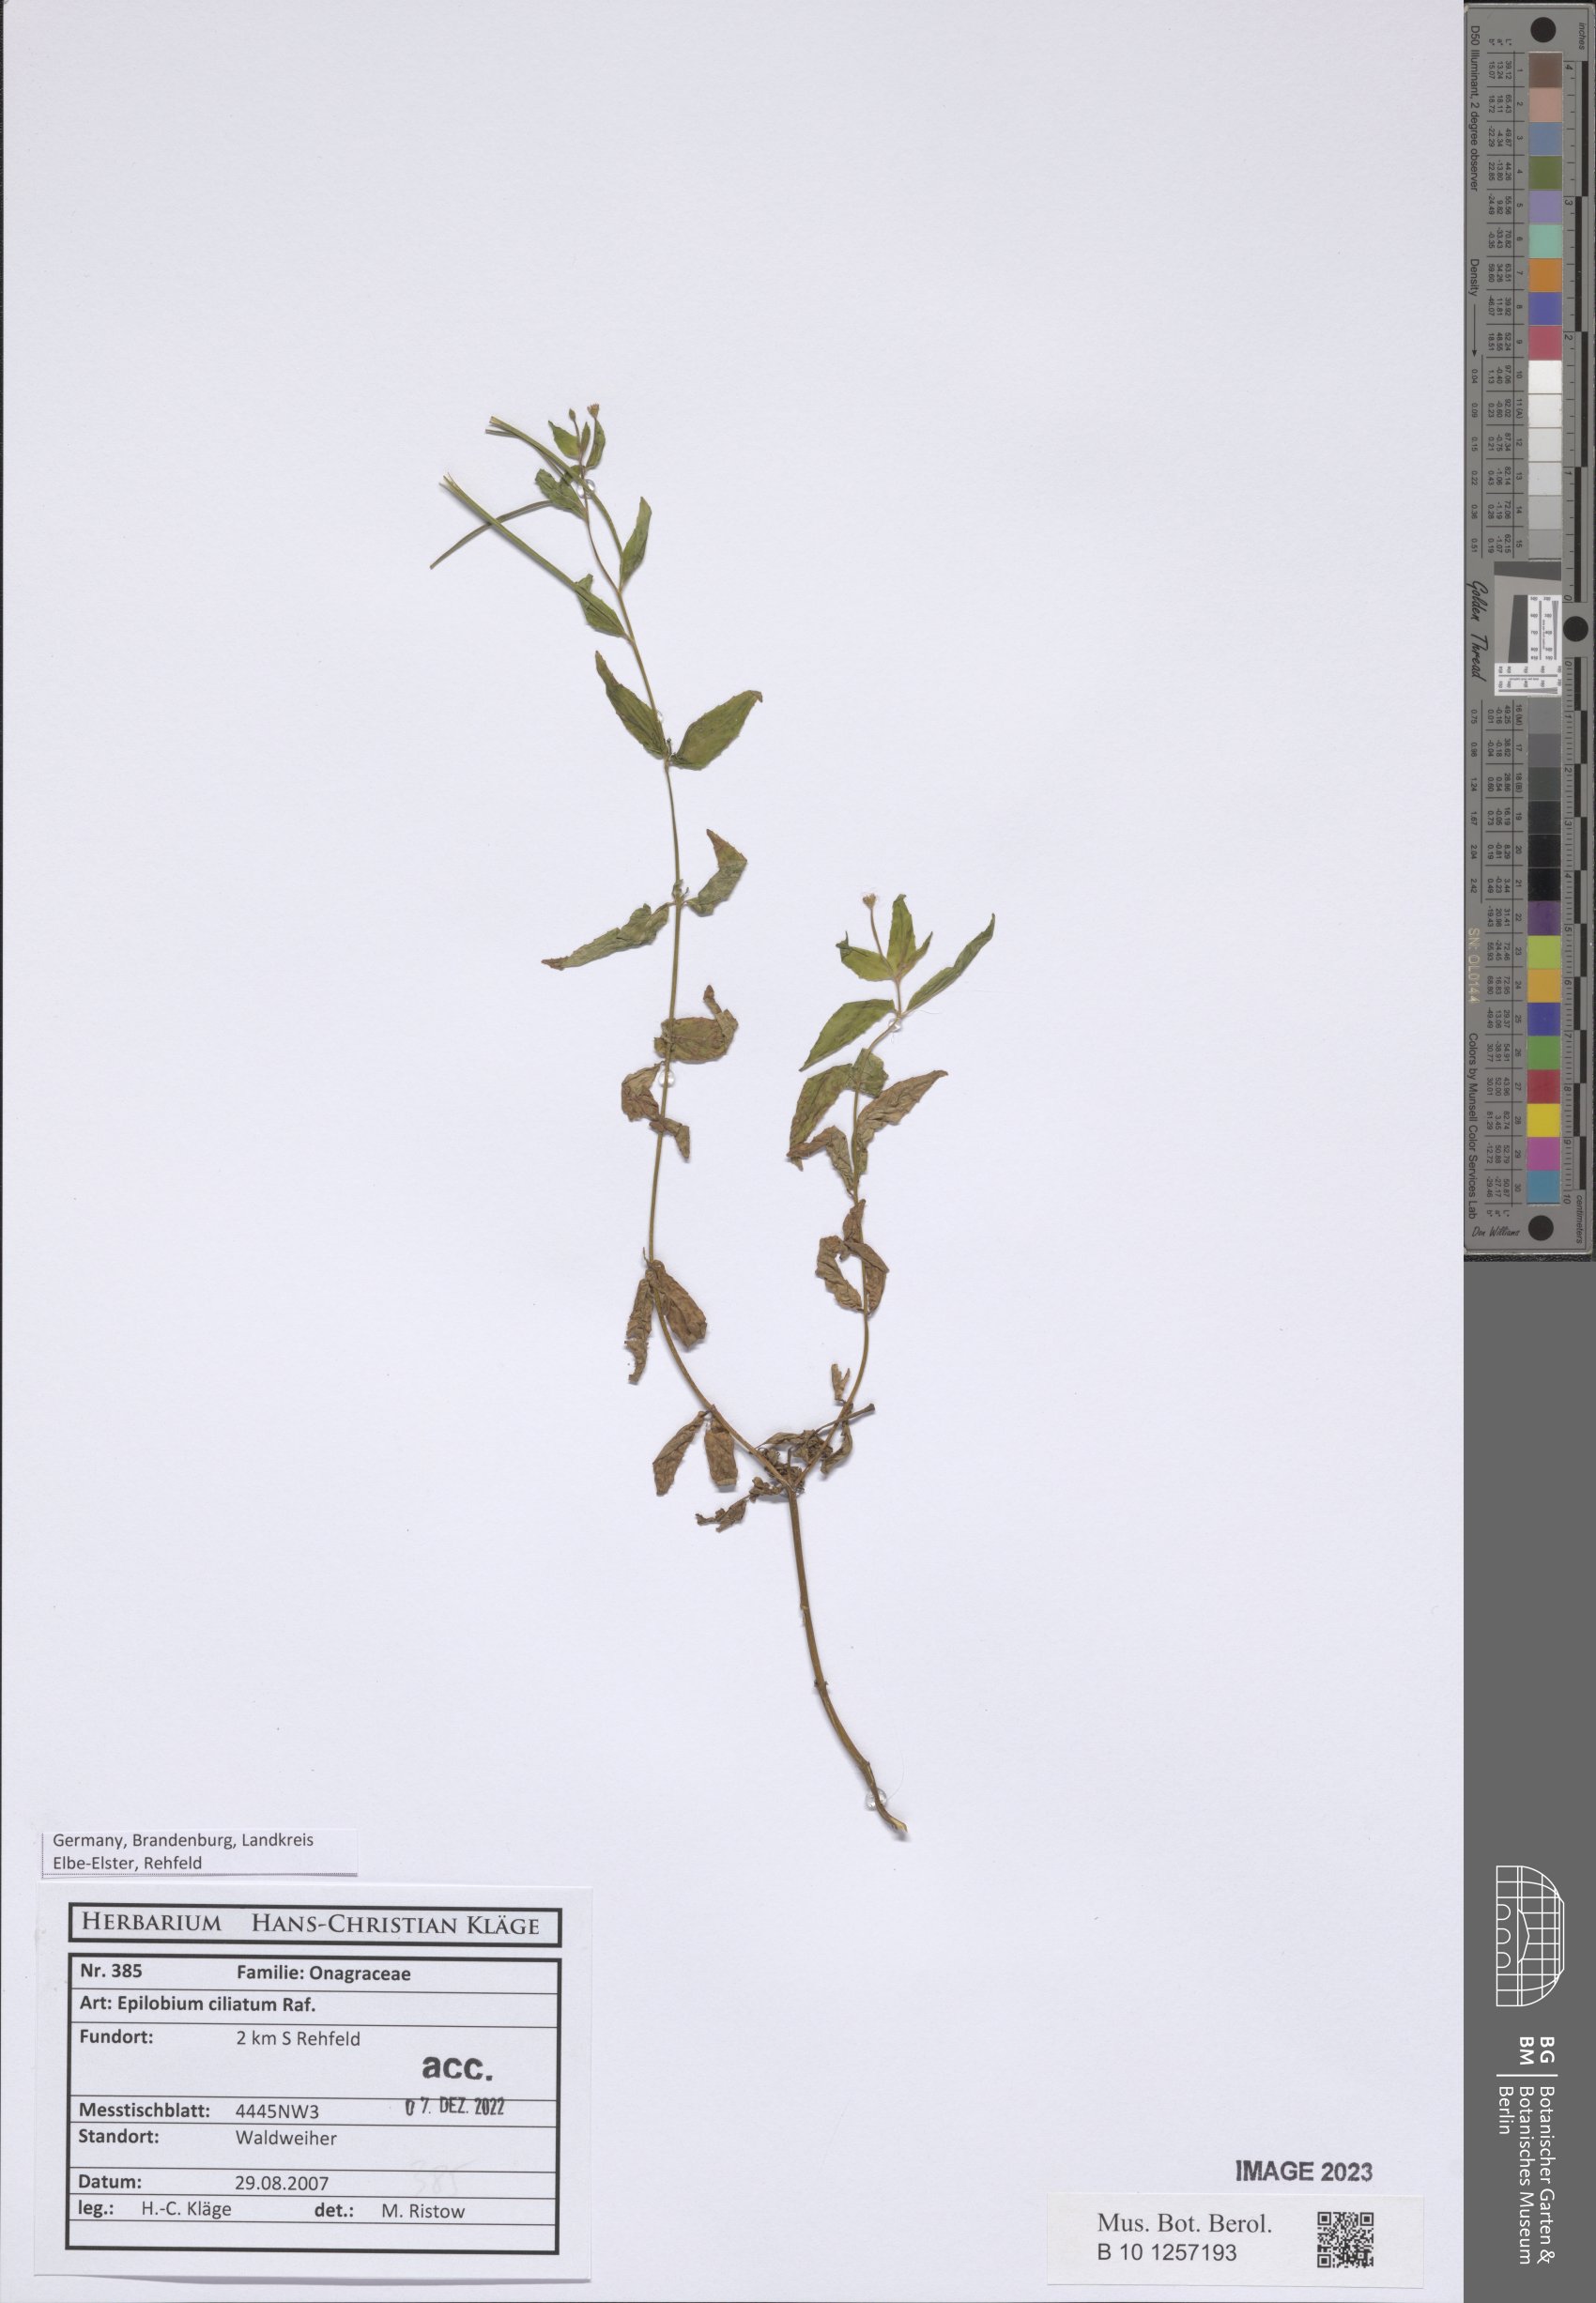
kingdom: Plantae
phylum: Tracheophyta
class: Magnoliopsida
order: Myrtales
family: Onagraceae
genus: Epilobium
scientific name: Epilobium ciliatum
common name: American willowherb
